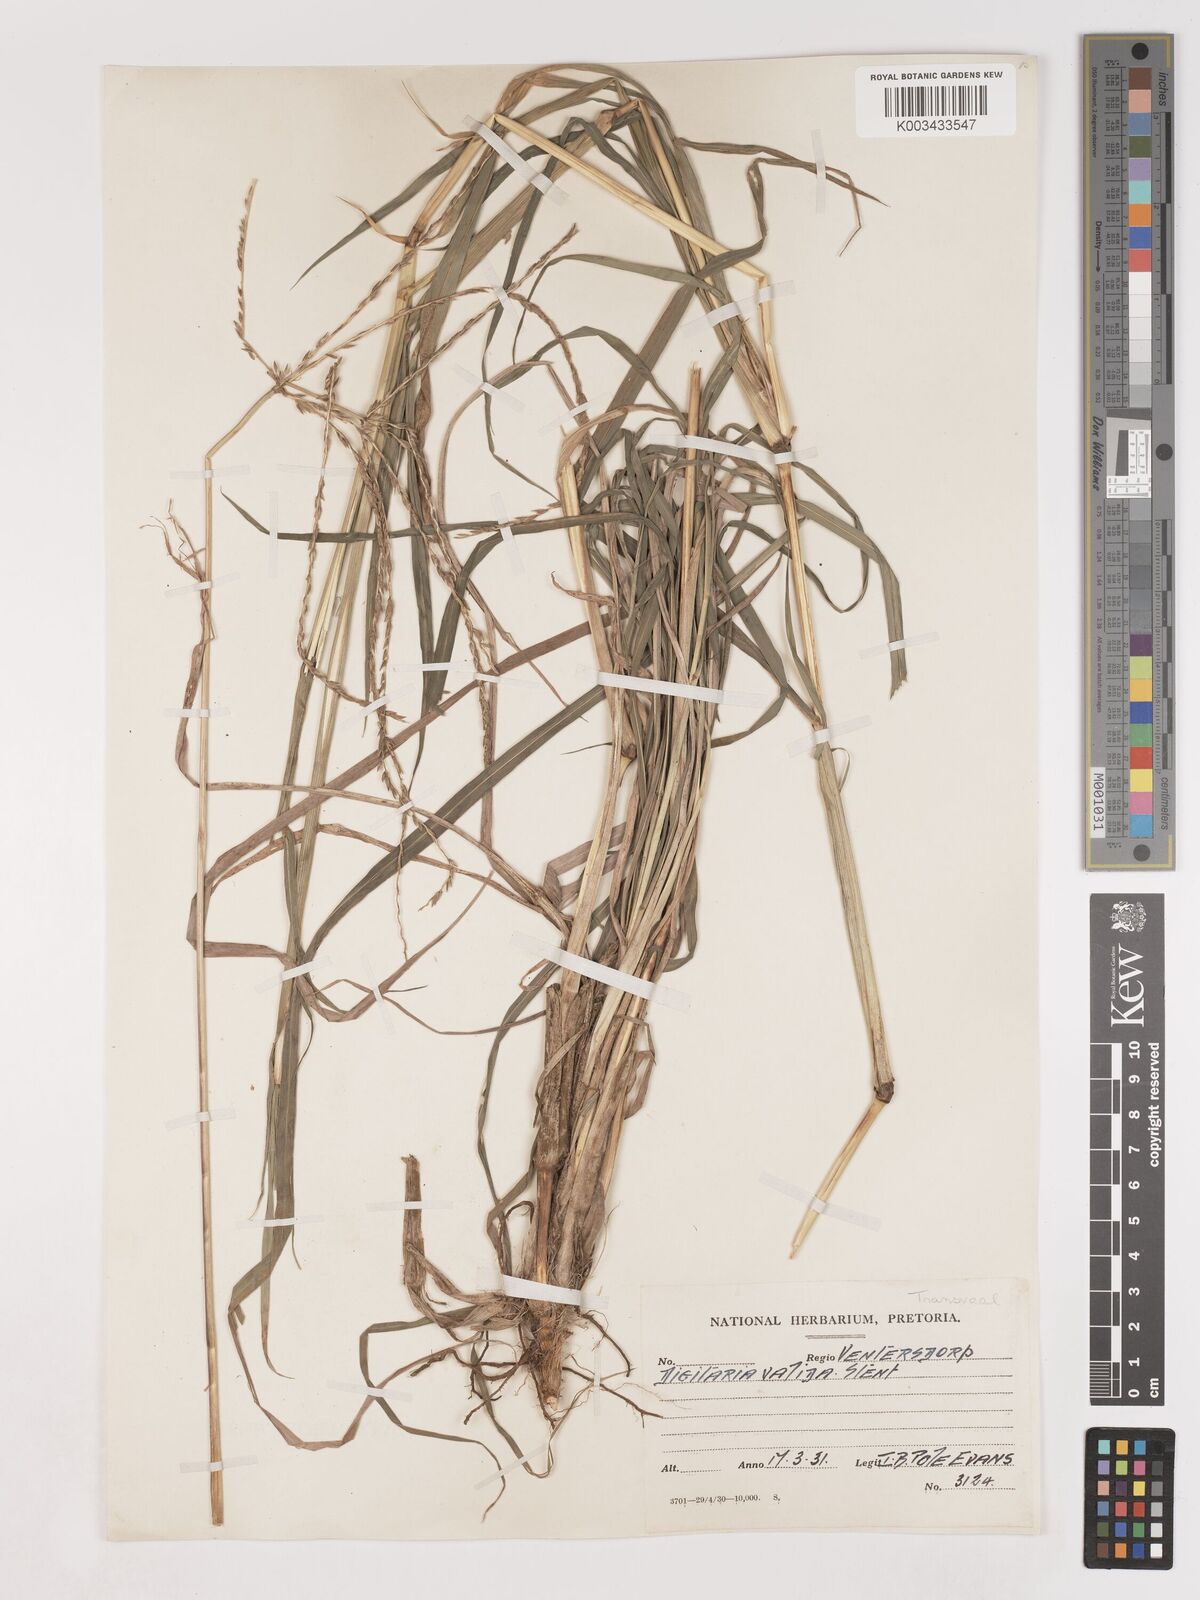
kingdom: Plantae
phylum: Tracheophyta
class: Liliopsida
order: Poales
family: Poaceae
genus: Digitaria
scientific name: Digitaria eriantha
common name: Digitgrass
